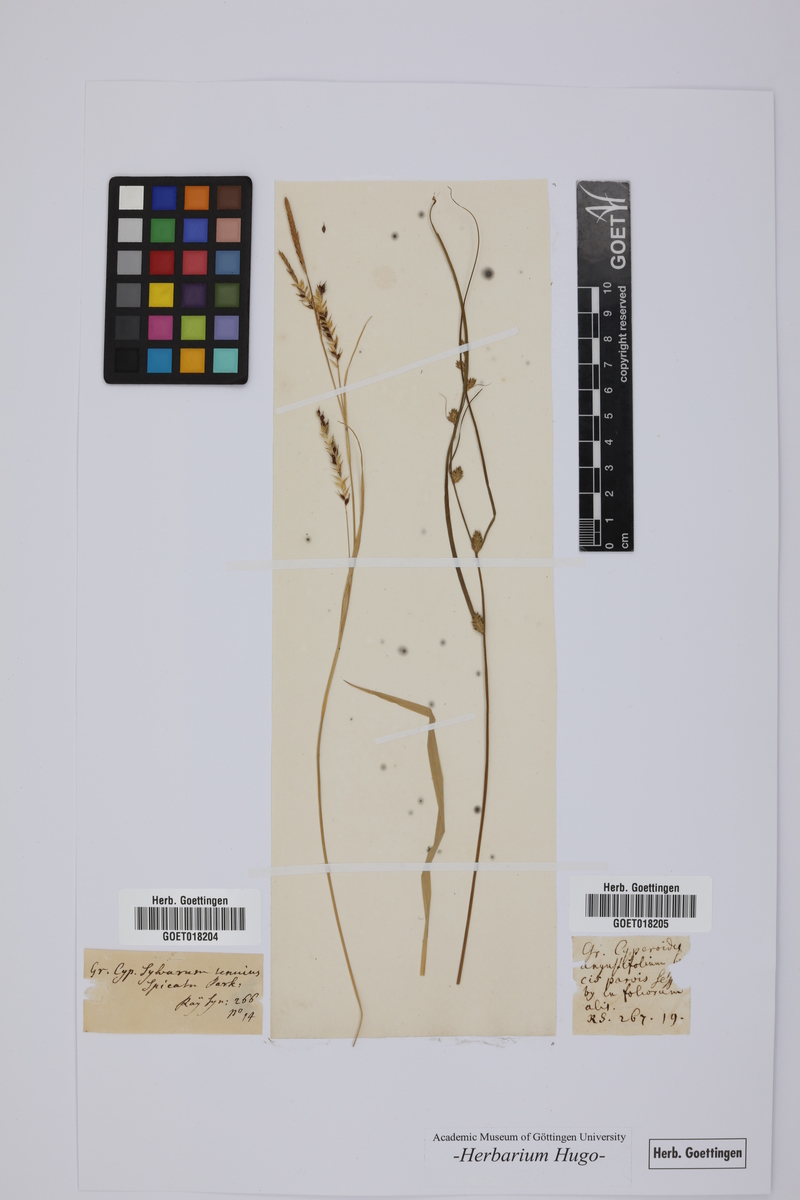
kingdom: Plantae
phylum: Tracheophyta
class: Liliopsida
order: Poales
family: Poaceae
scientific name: Poaceae
